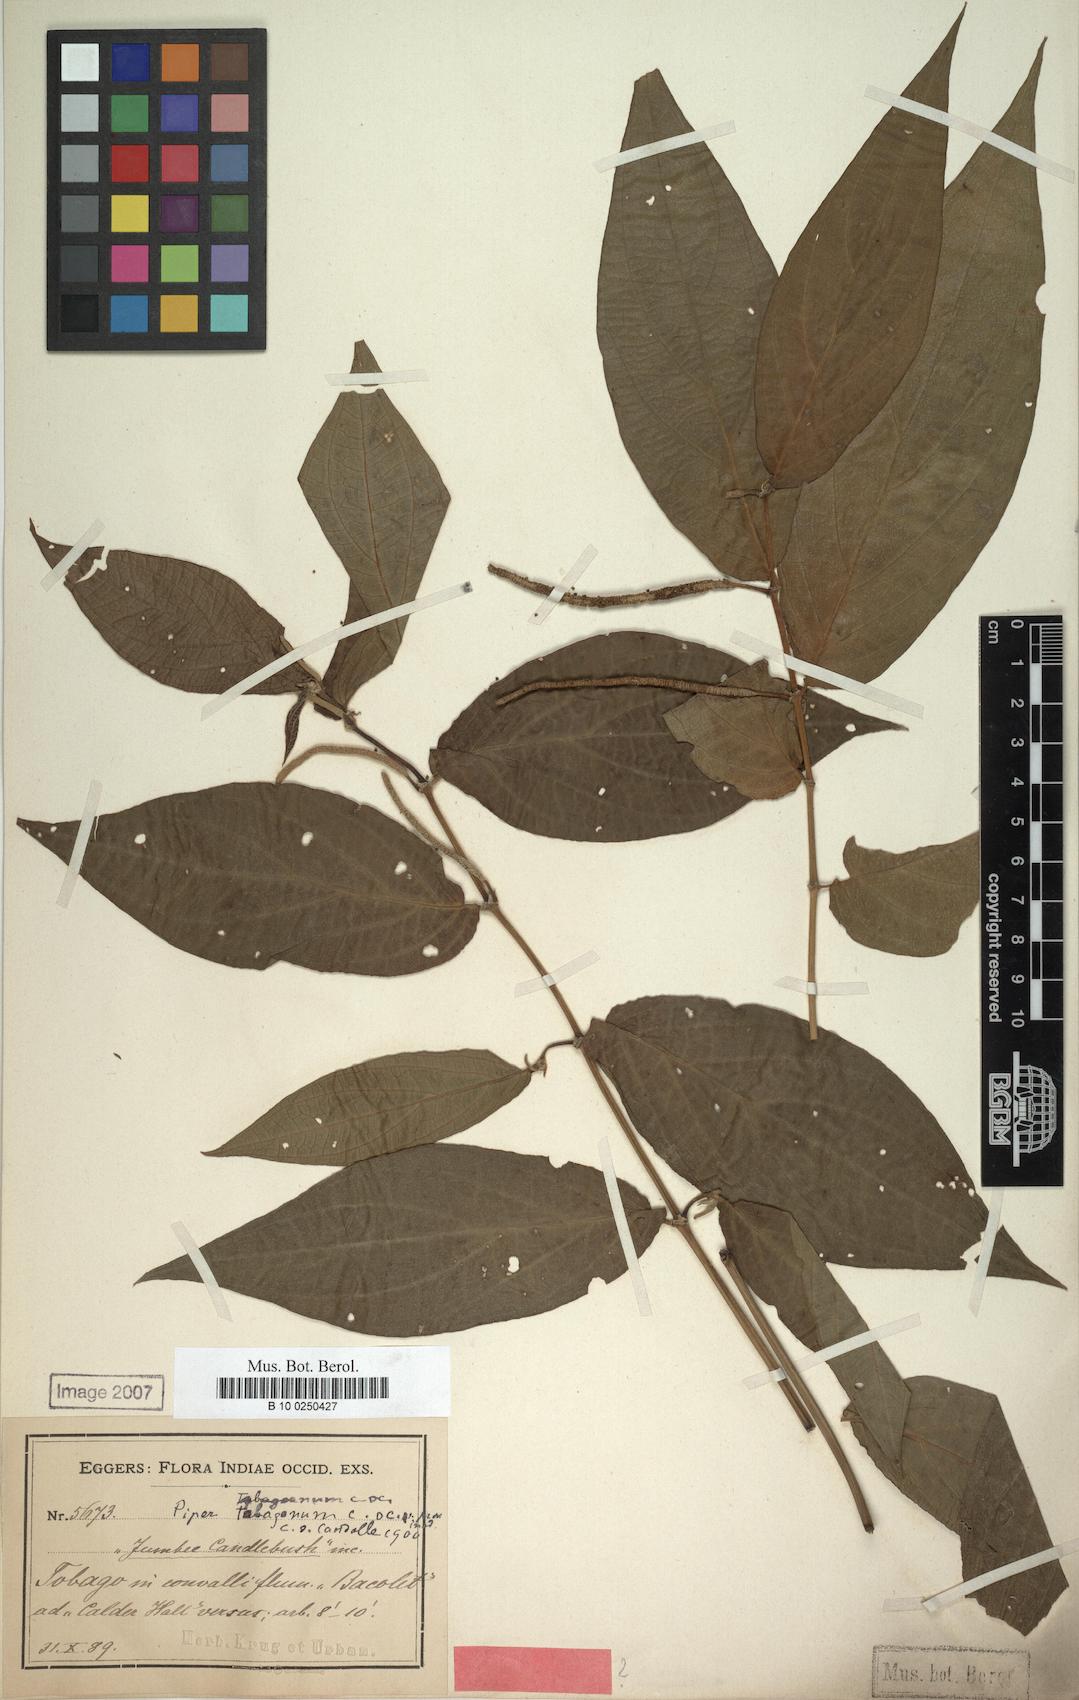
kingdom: Plantae
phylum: Tracheophyta
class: Magnoliopsida
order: Piperales
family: Piperaceae
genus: Piper
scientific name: Piper dilatatum
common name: Higuillo
